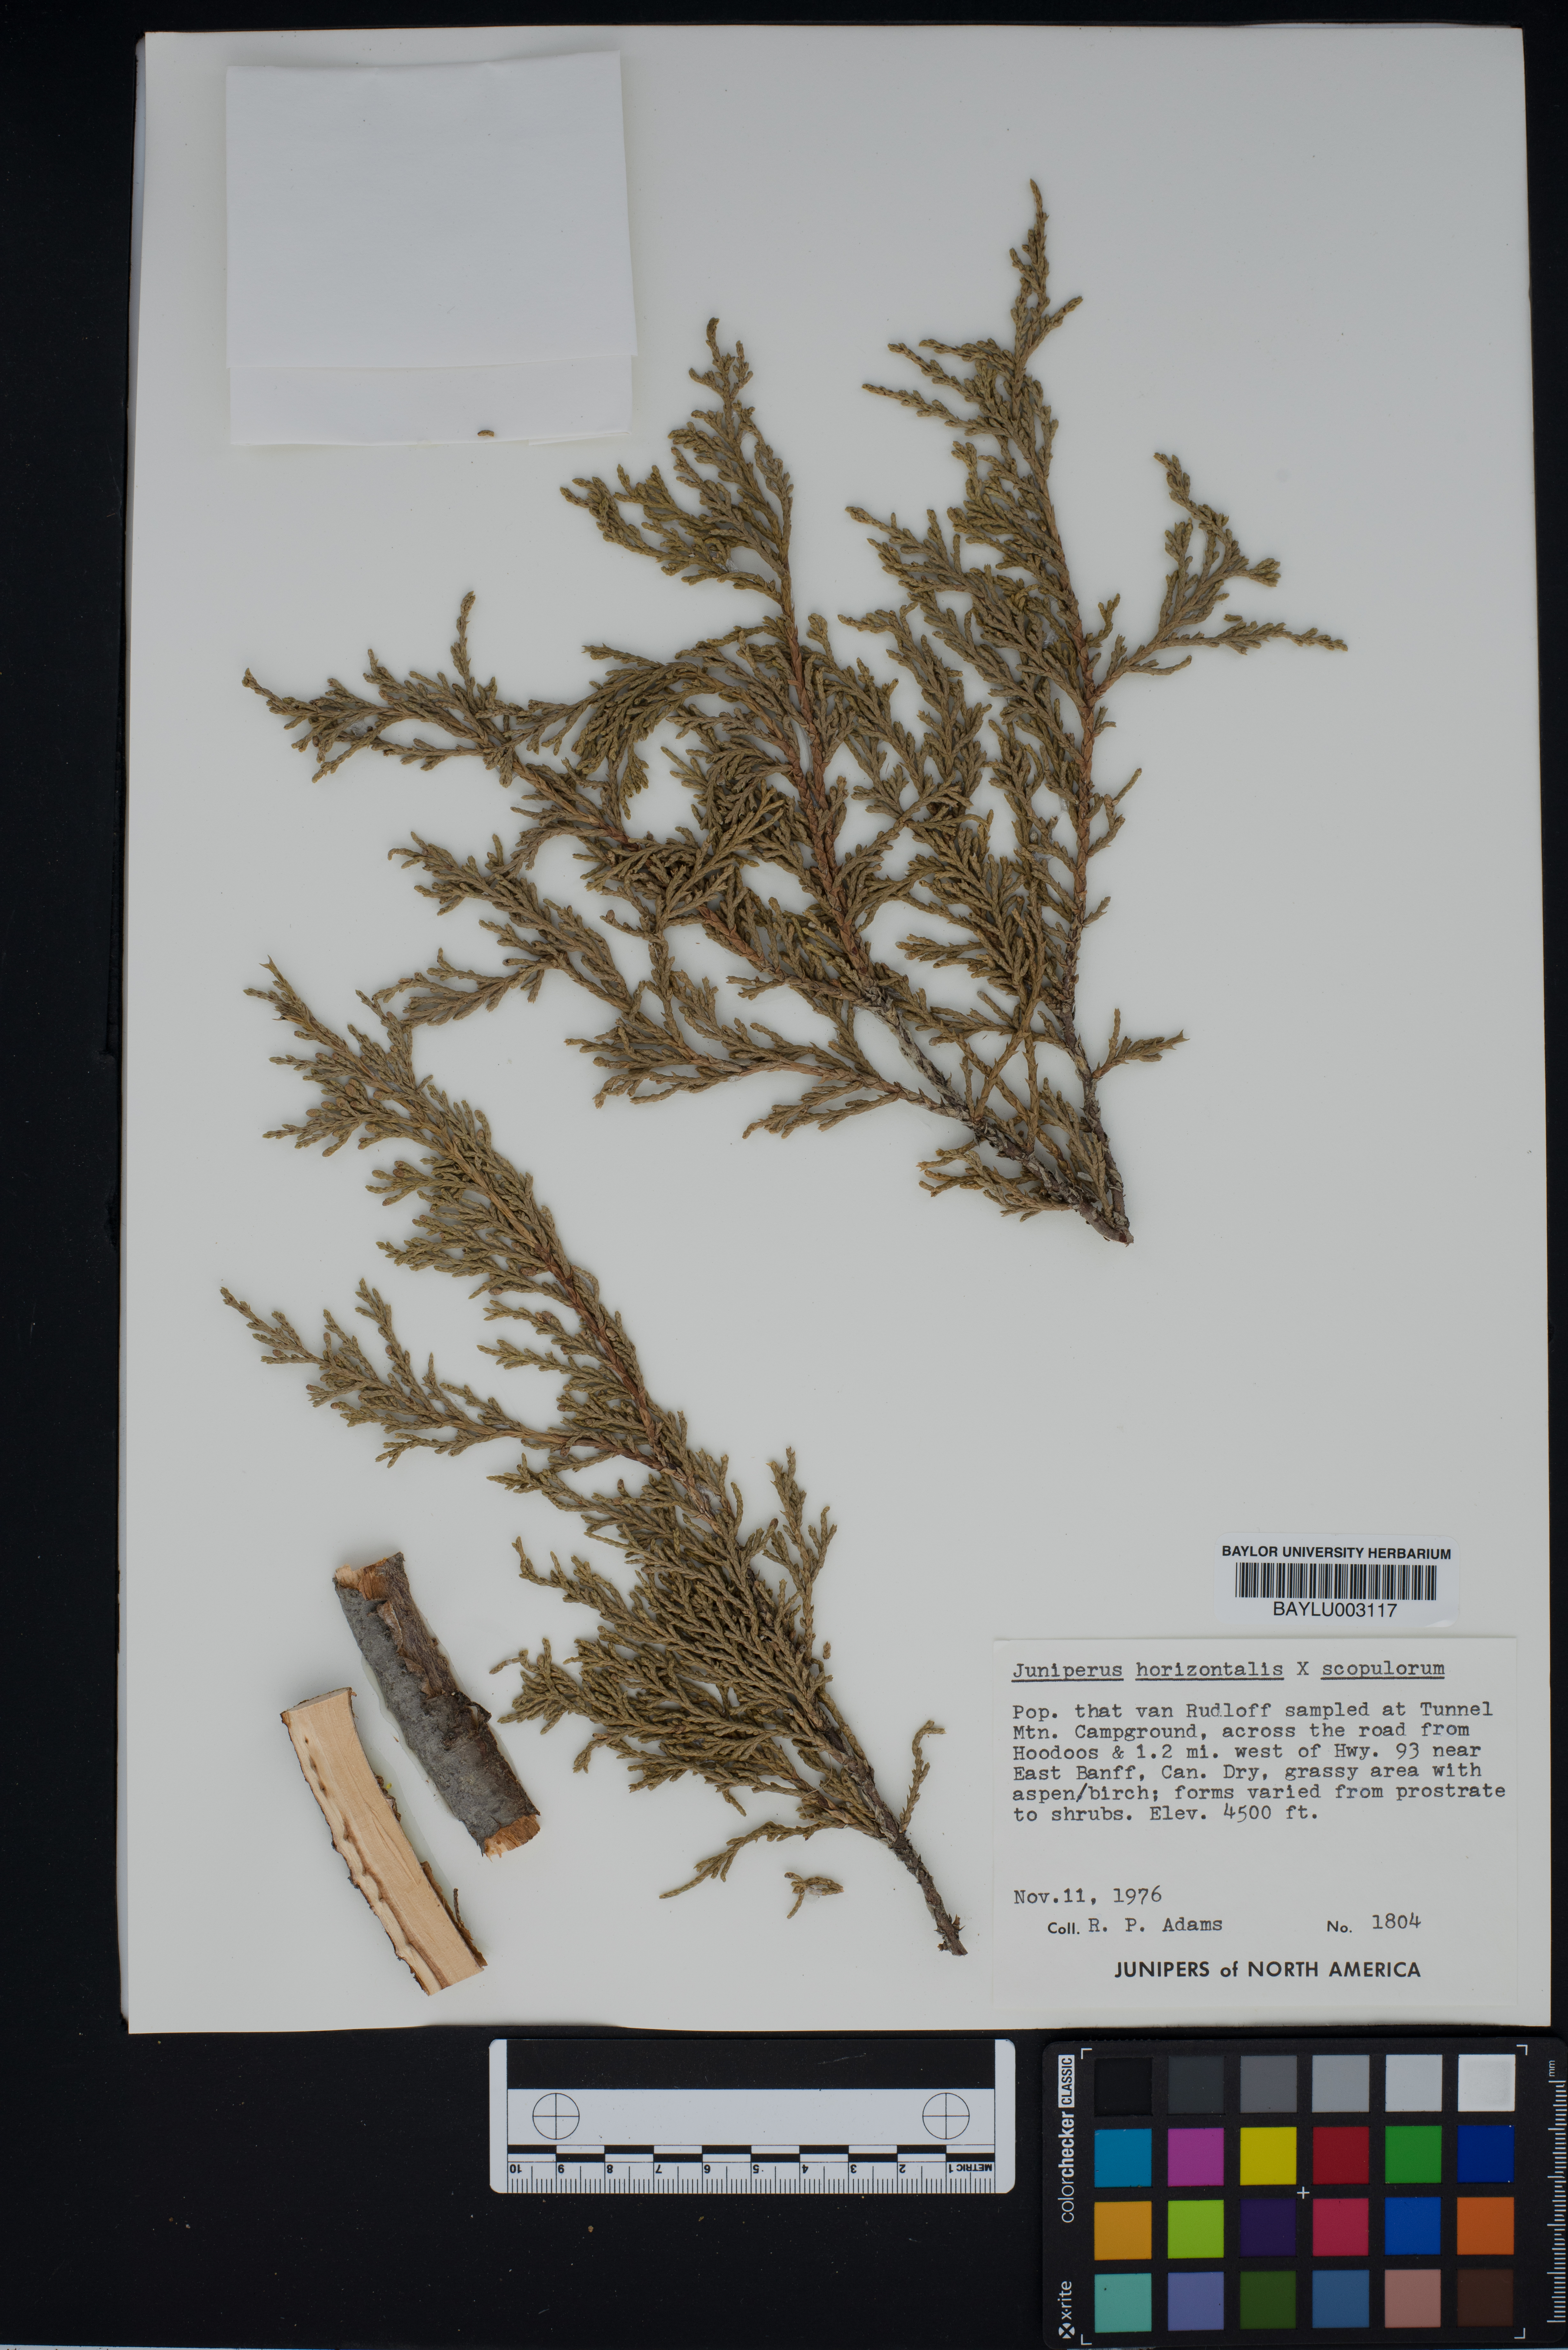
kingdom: Plantae
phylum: Tracheophyta
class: Pinopsida
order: Pinales
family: Cupressaceae
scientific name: Cupressaceae
